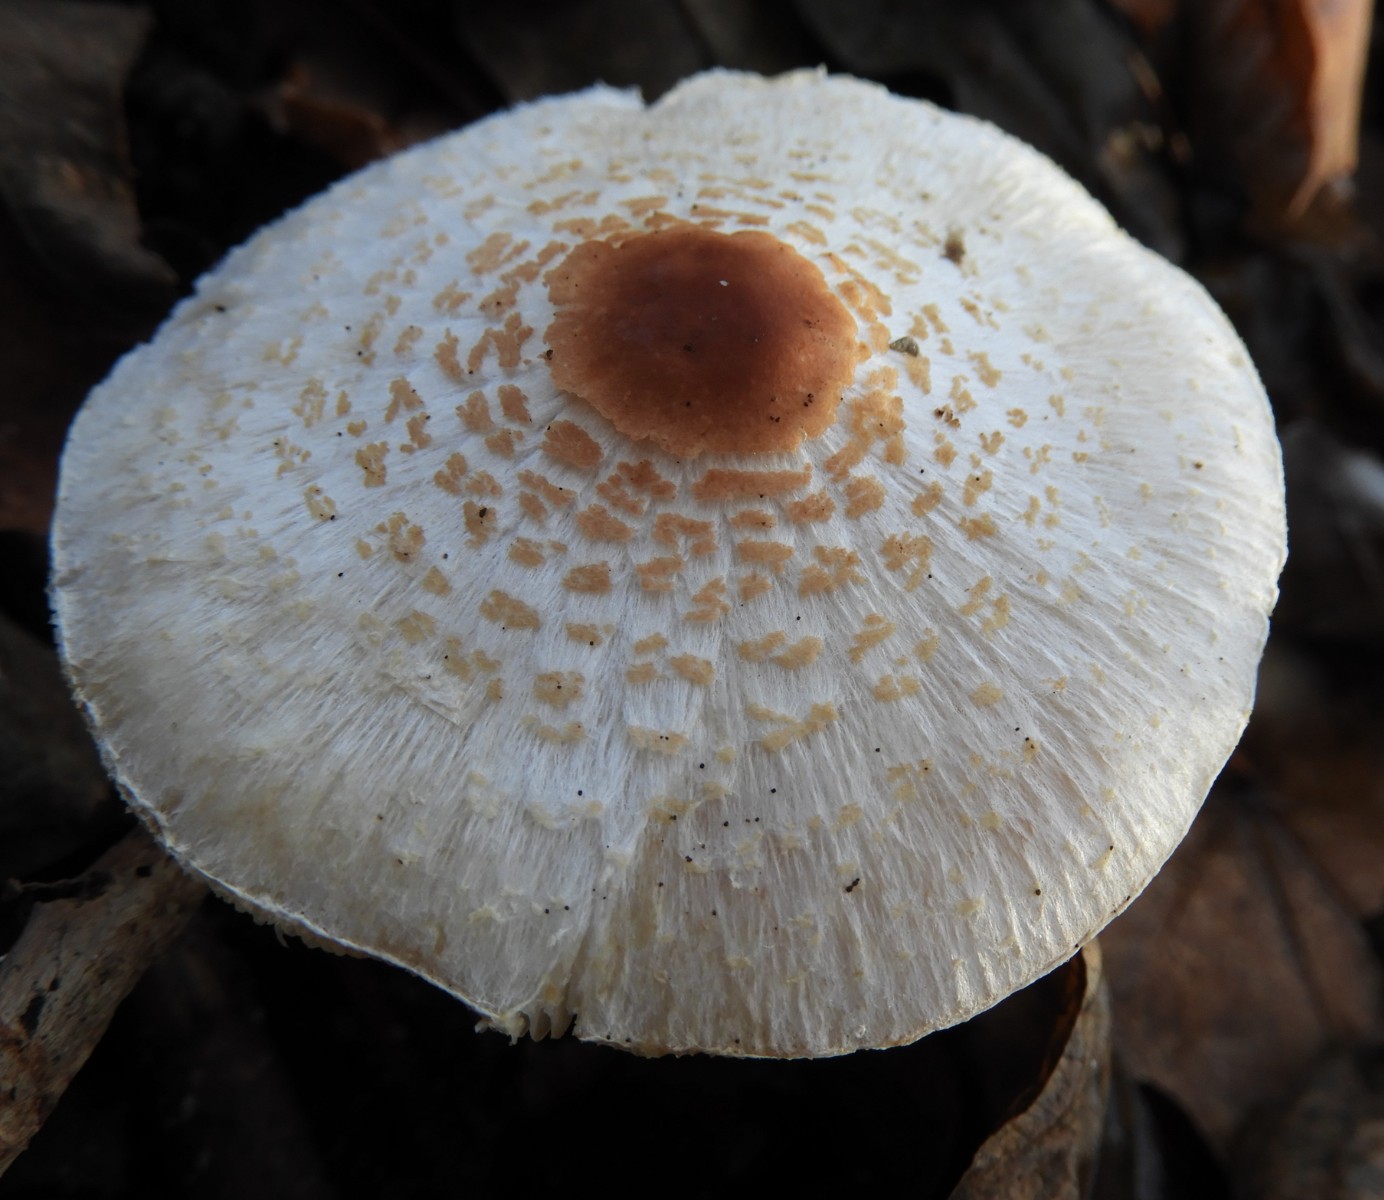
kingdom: Fungi
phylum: Basidiomycota
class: Agaricomycetes
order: Agaricales
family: Agaricaceae
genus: Lepiota
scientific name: Lepiota cristata
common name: stinkende parasolhat
